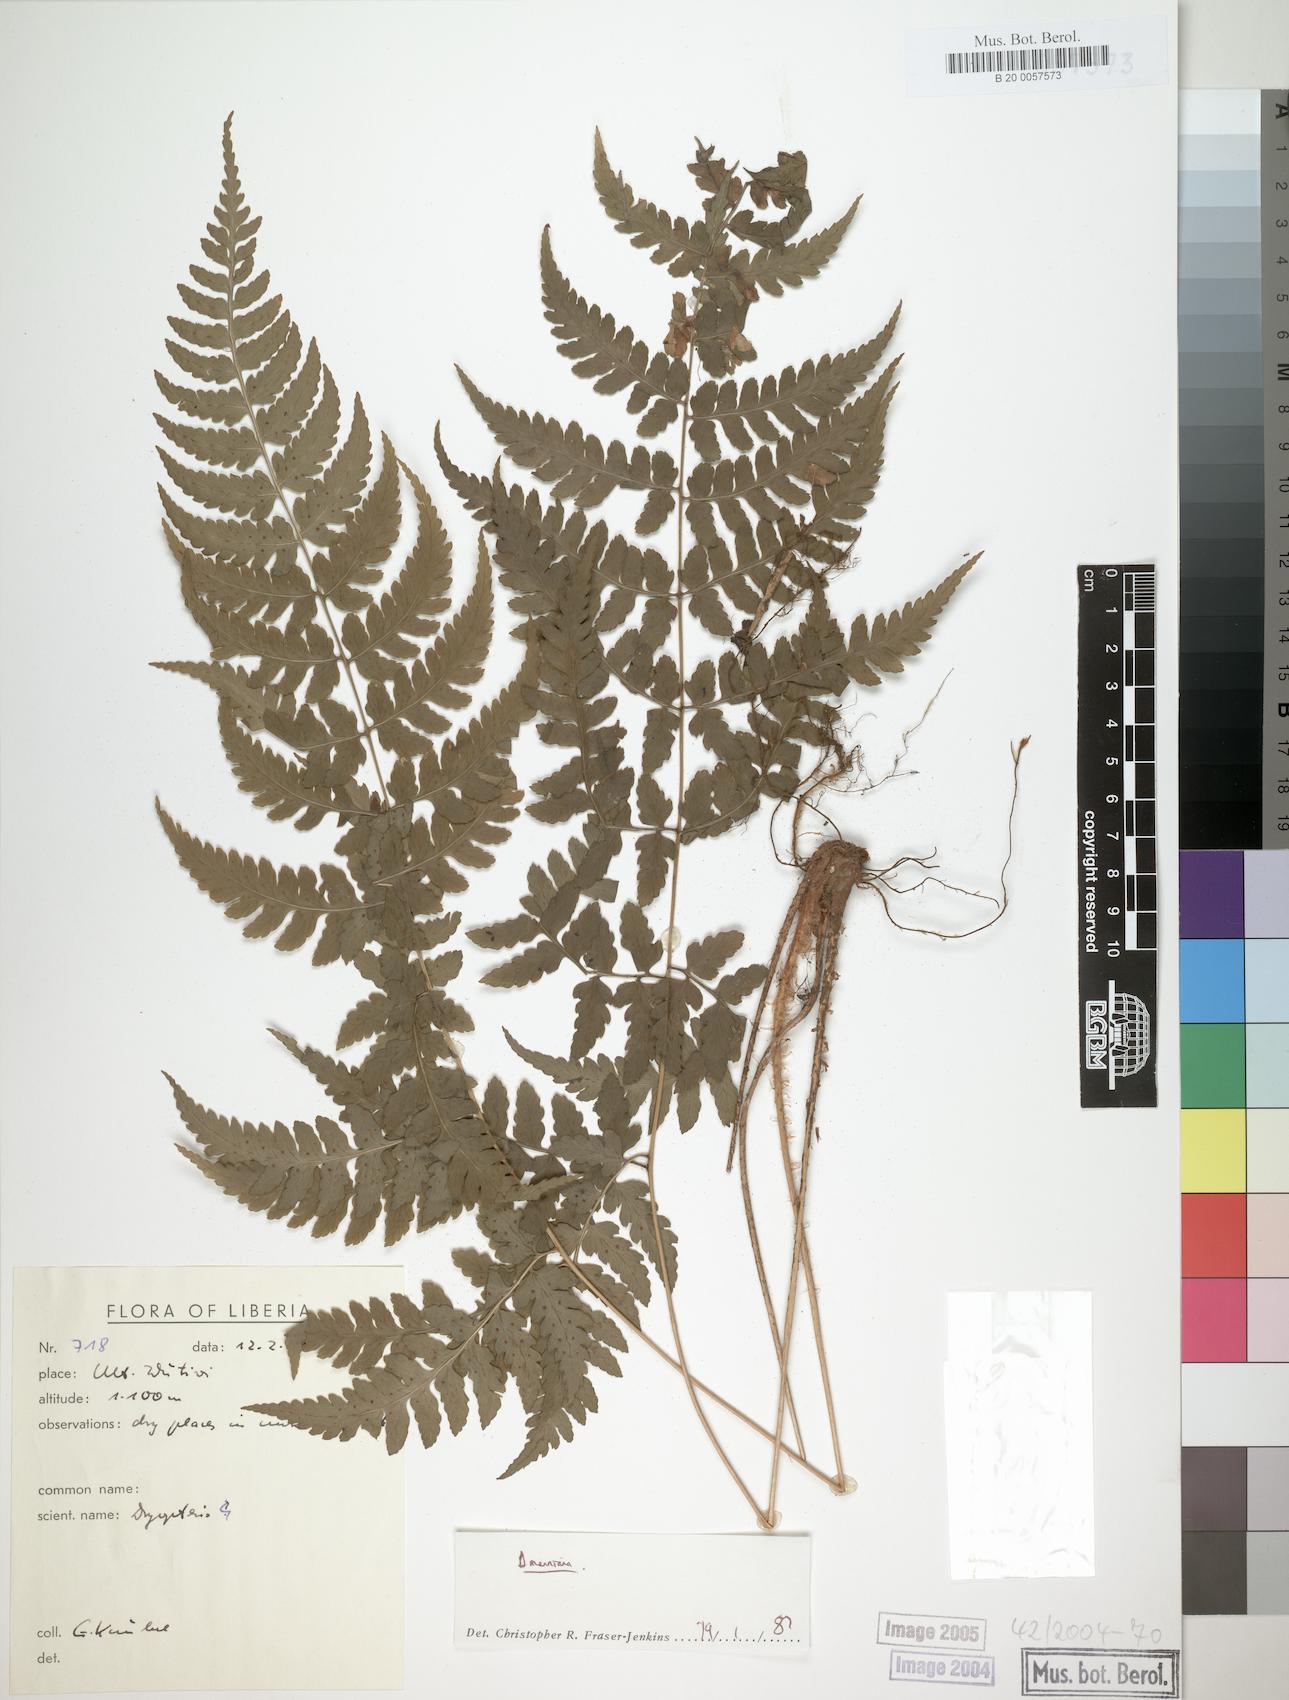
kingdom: Plantae
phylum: Tracheophyta
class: Polypodiopsida
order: Polypodiales
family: Dryopteridaceae
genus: Dryopteris
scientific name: Dryopteris manniana
